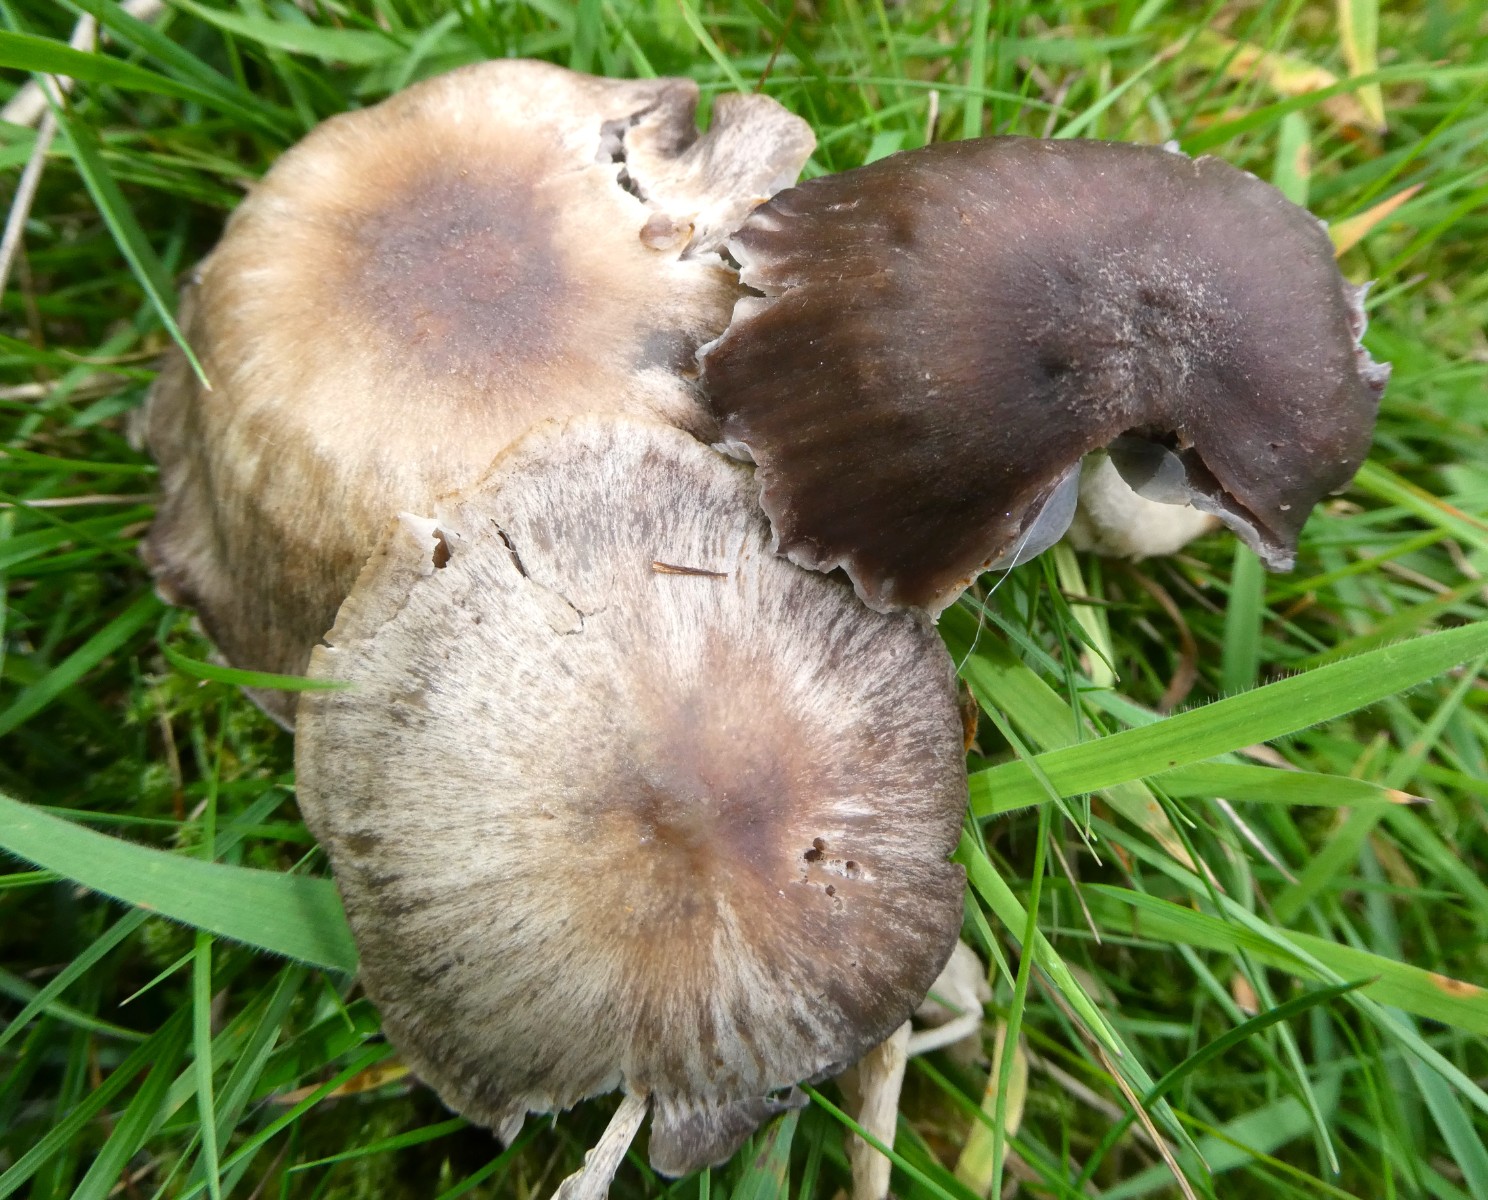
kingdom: Fungi
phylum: Basidiomycota
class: Agaricomycetes
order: Agaricales
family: Hygrophoraceae
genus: Cuphophyllus
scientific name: Cuphophyllus flavipes
